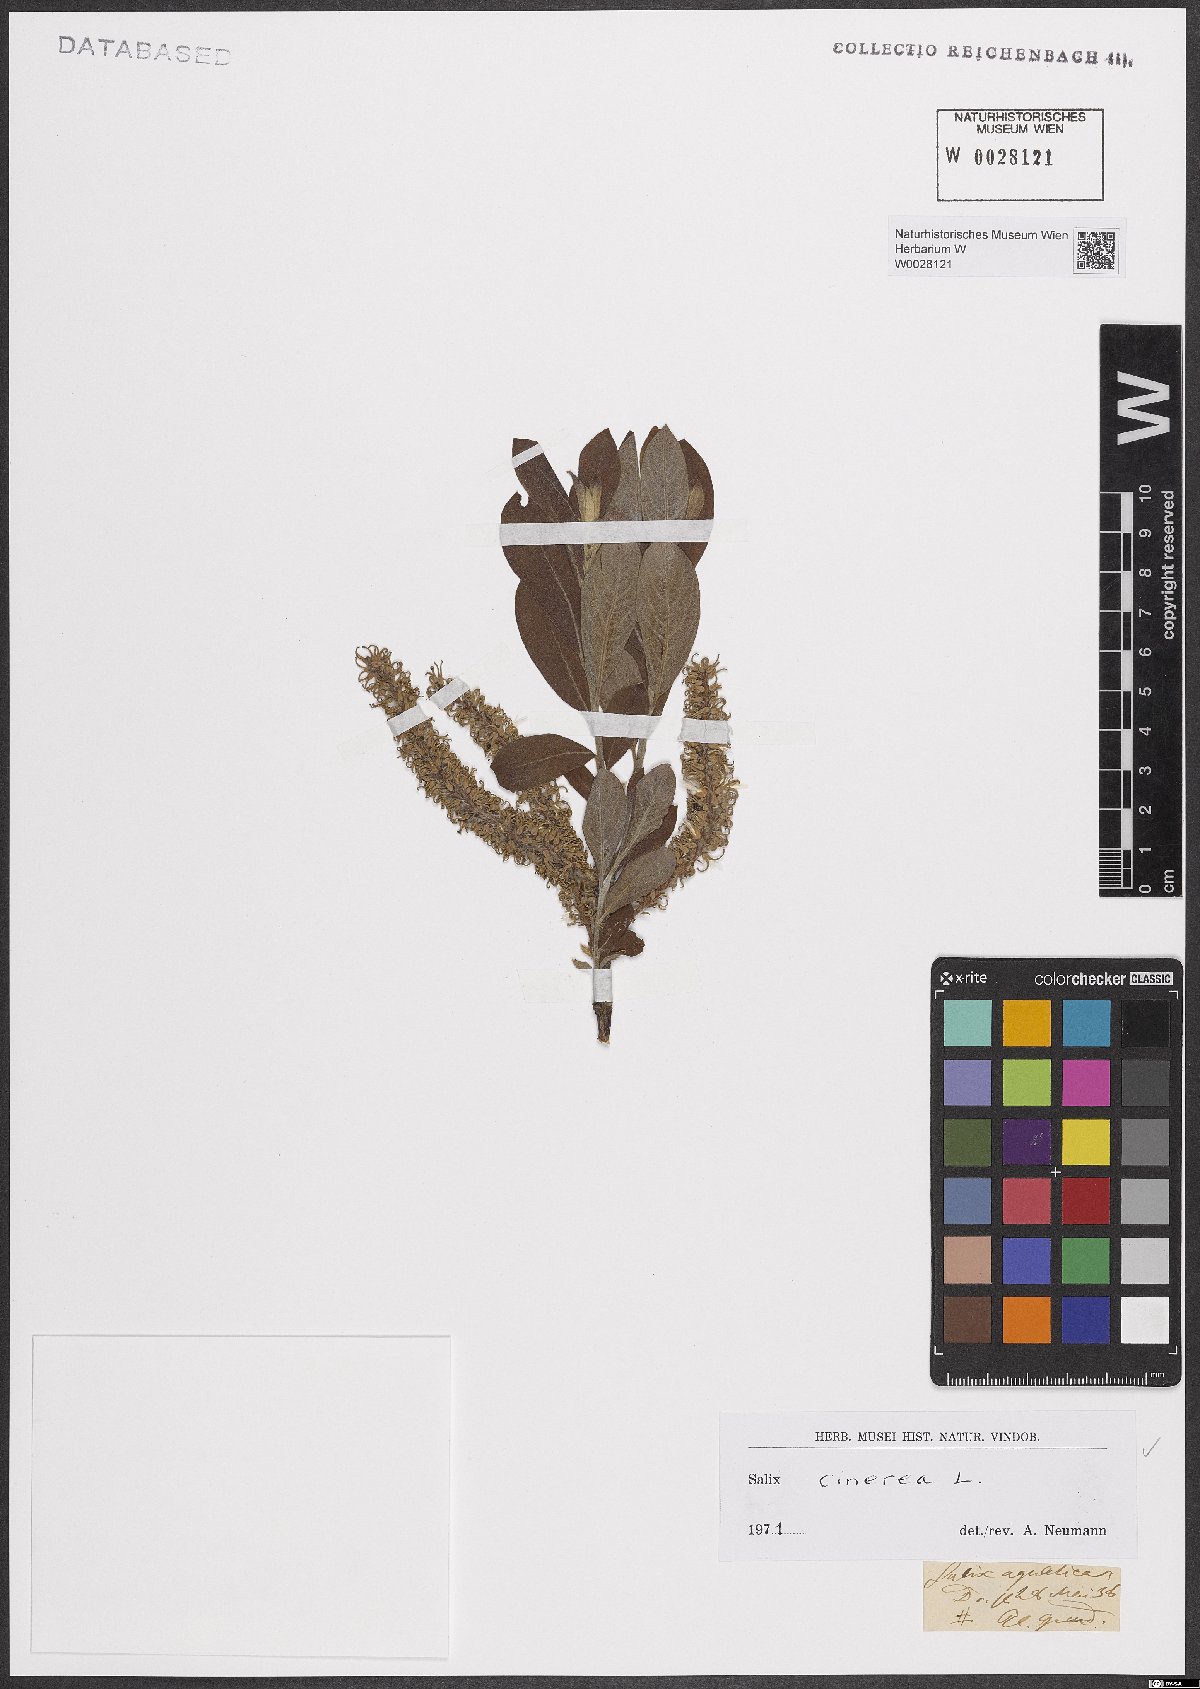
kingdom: Plantae
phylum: Tracheophyta
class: Magnoliopsida
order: Malpighiales
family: Salicaceae
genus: Salix
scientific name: Salix cinerea
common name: Common sallow
